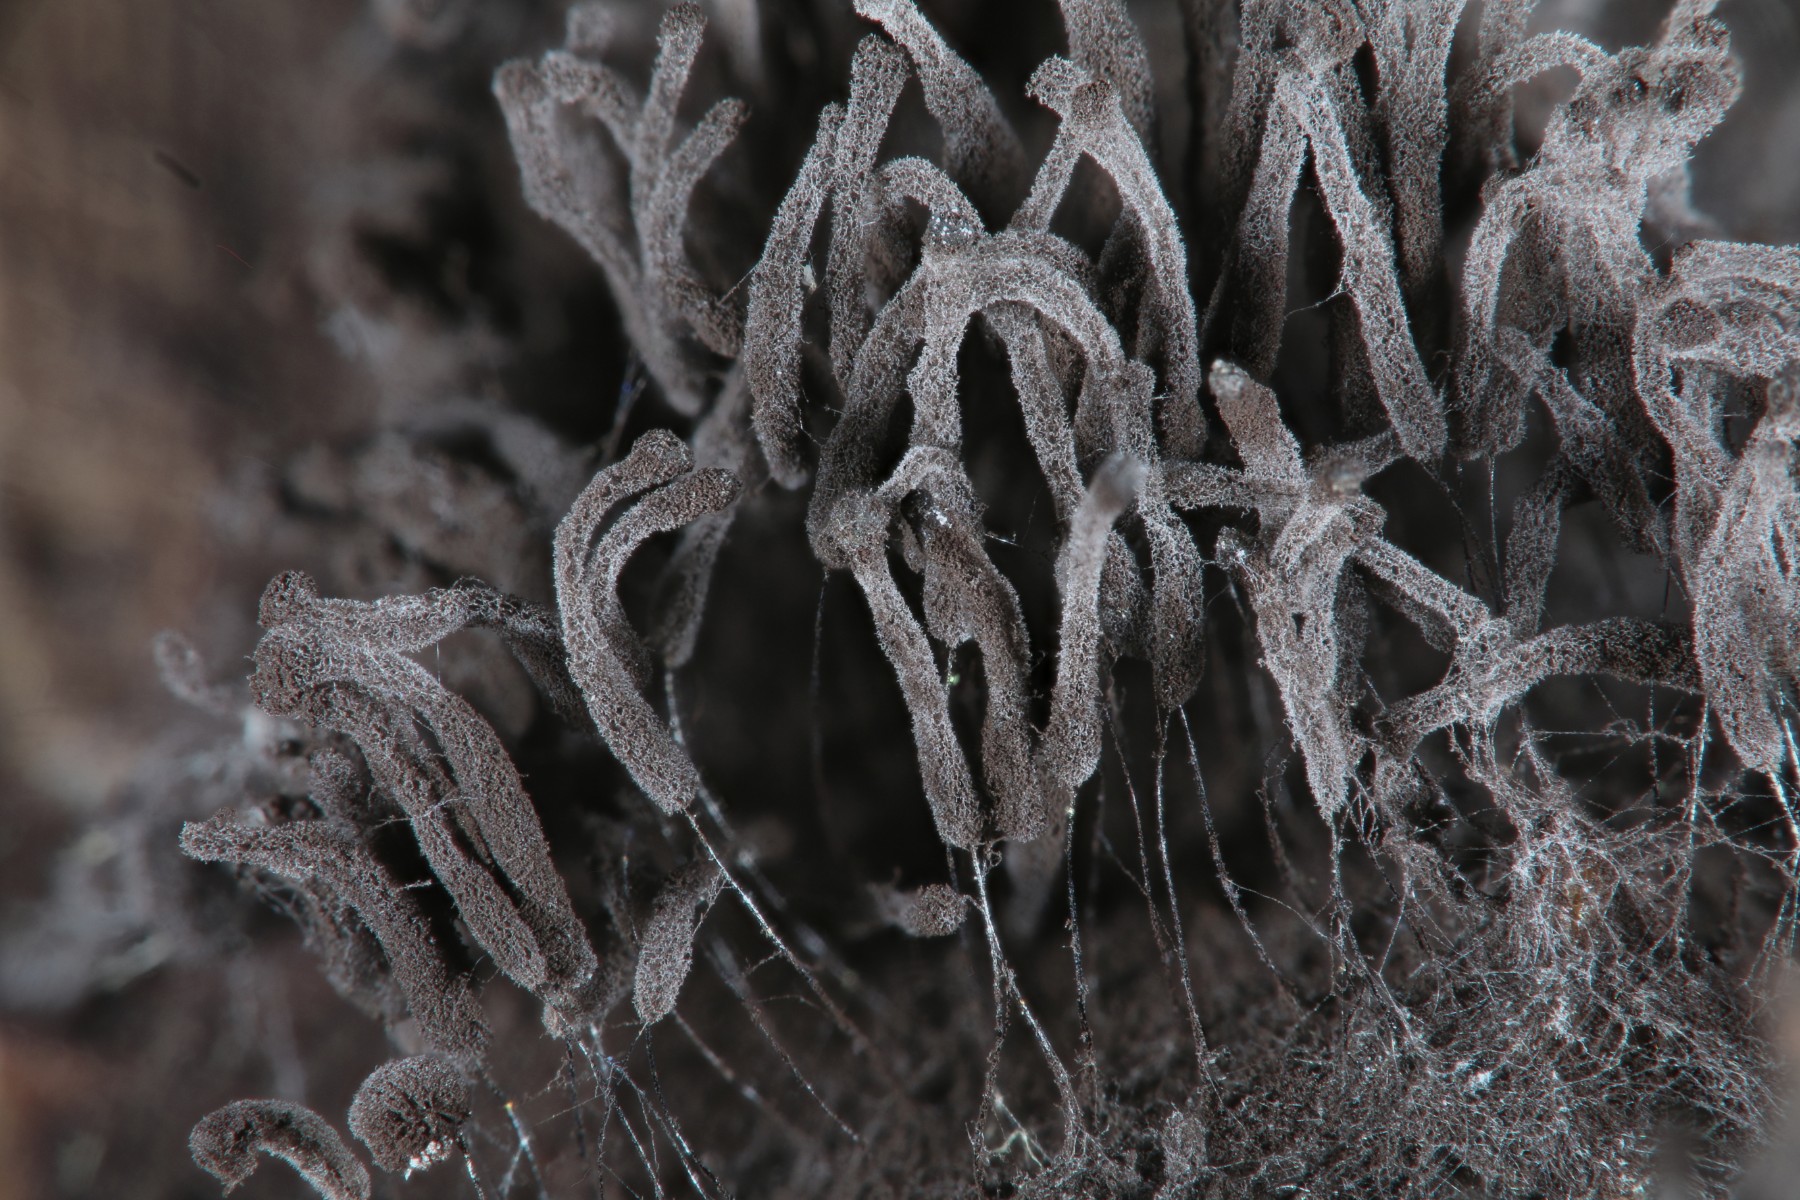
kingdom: Protozoa
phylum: Mycetozoa
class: Myxomycetes
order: Stemonitidales
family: Stemonitidaceae
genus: Stemonaria
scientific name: Stemonaria irregularis
